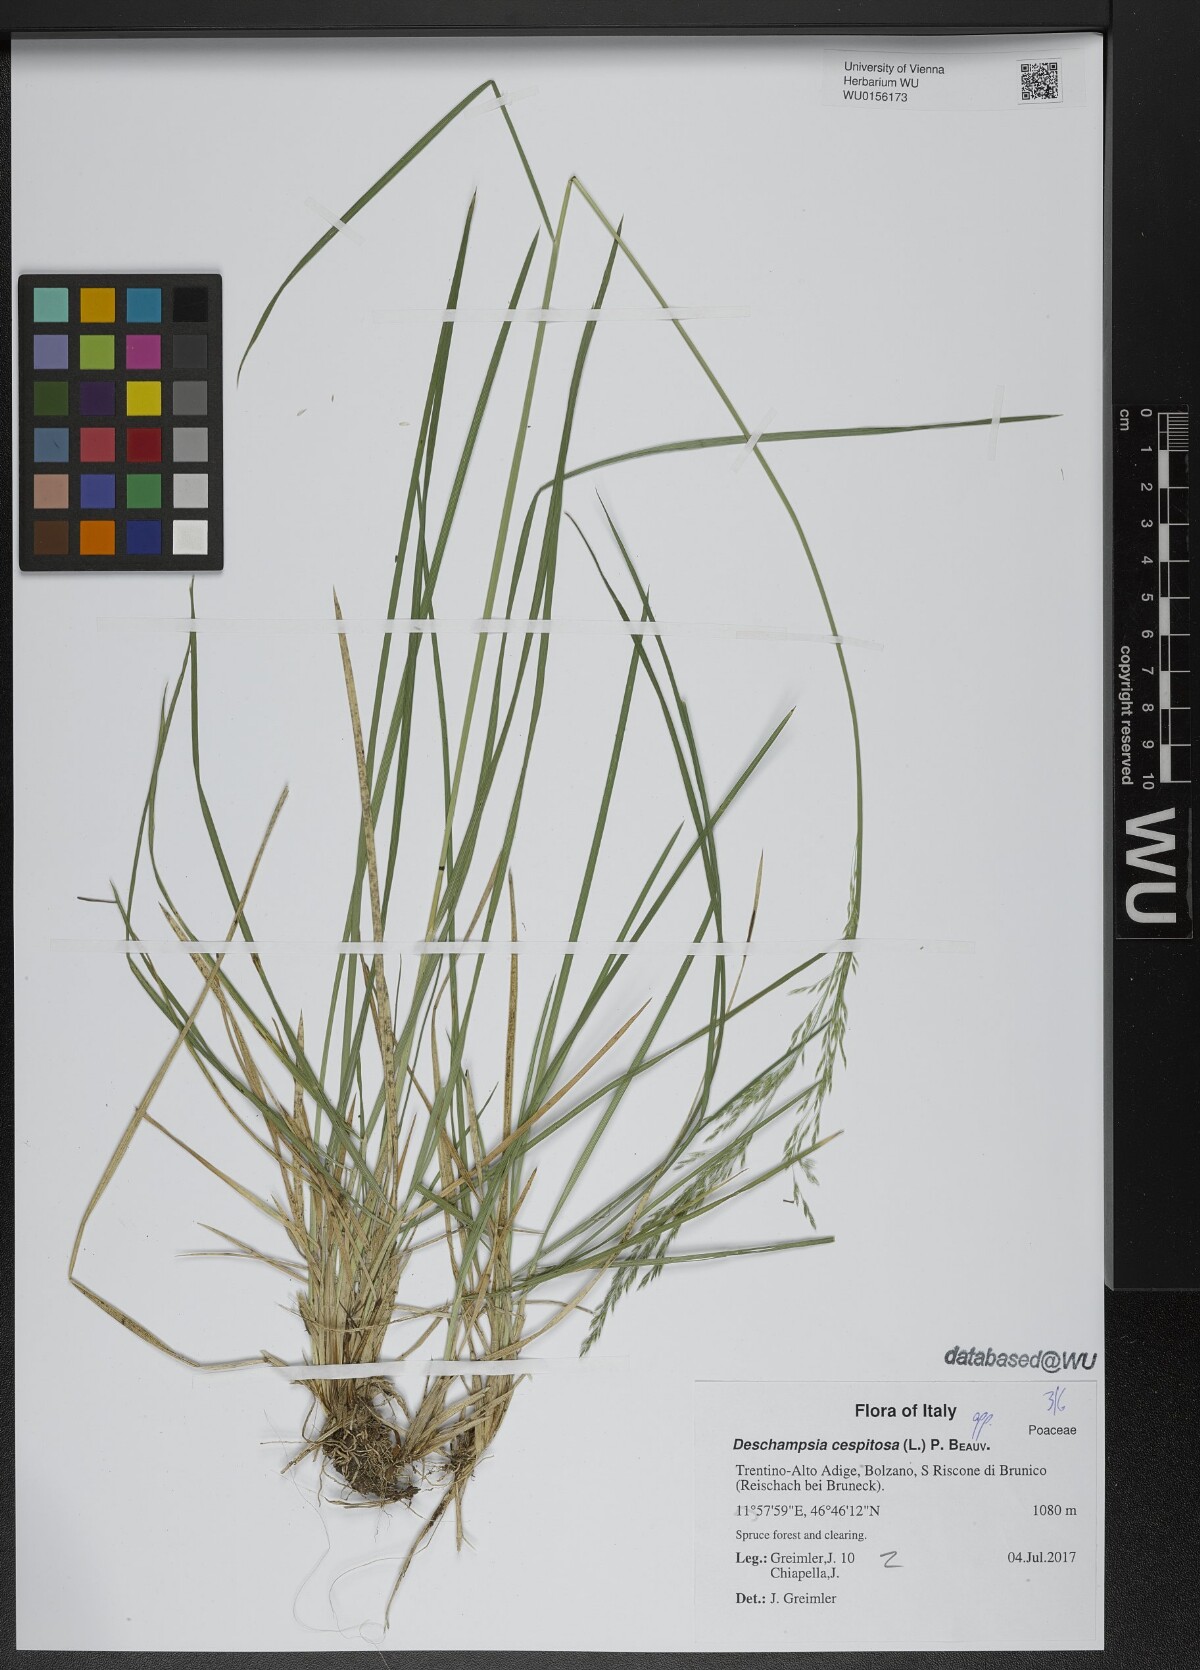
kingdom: Plantae
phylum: Tracheophyta
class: Liliopsida
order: Poales
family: Poaceae
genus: Deschampsia
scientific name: Deschampsia cespitosa
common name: Tufted hair-grass
